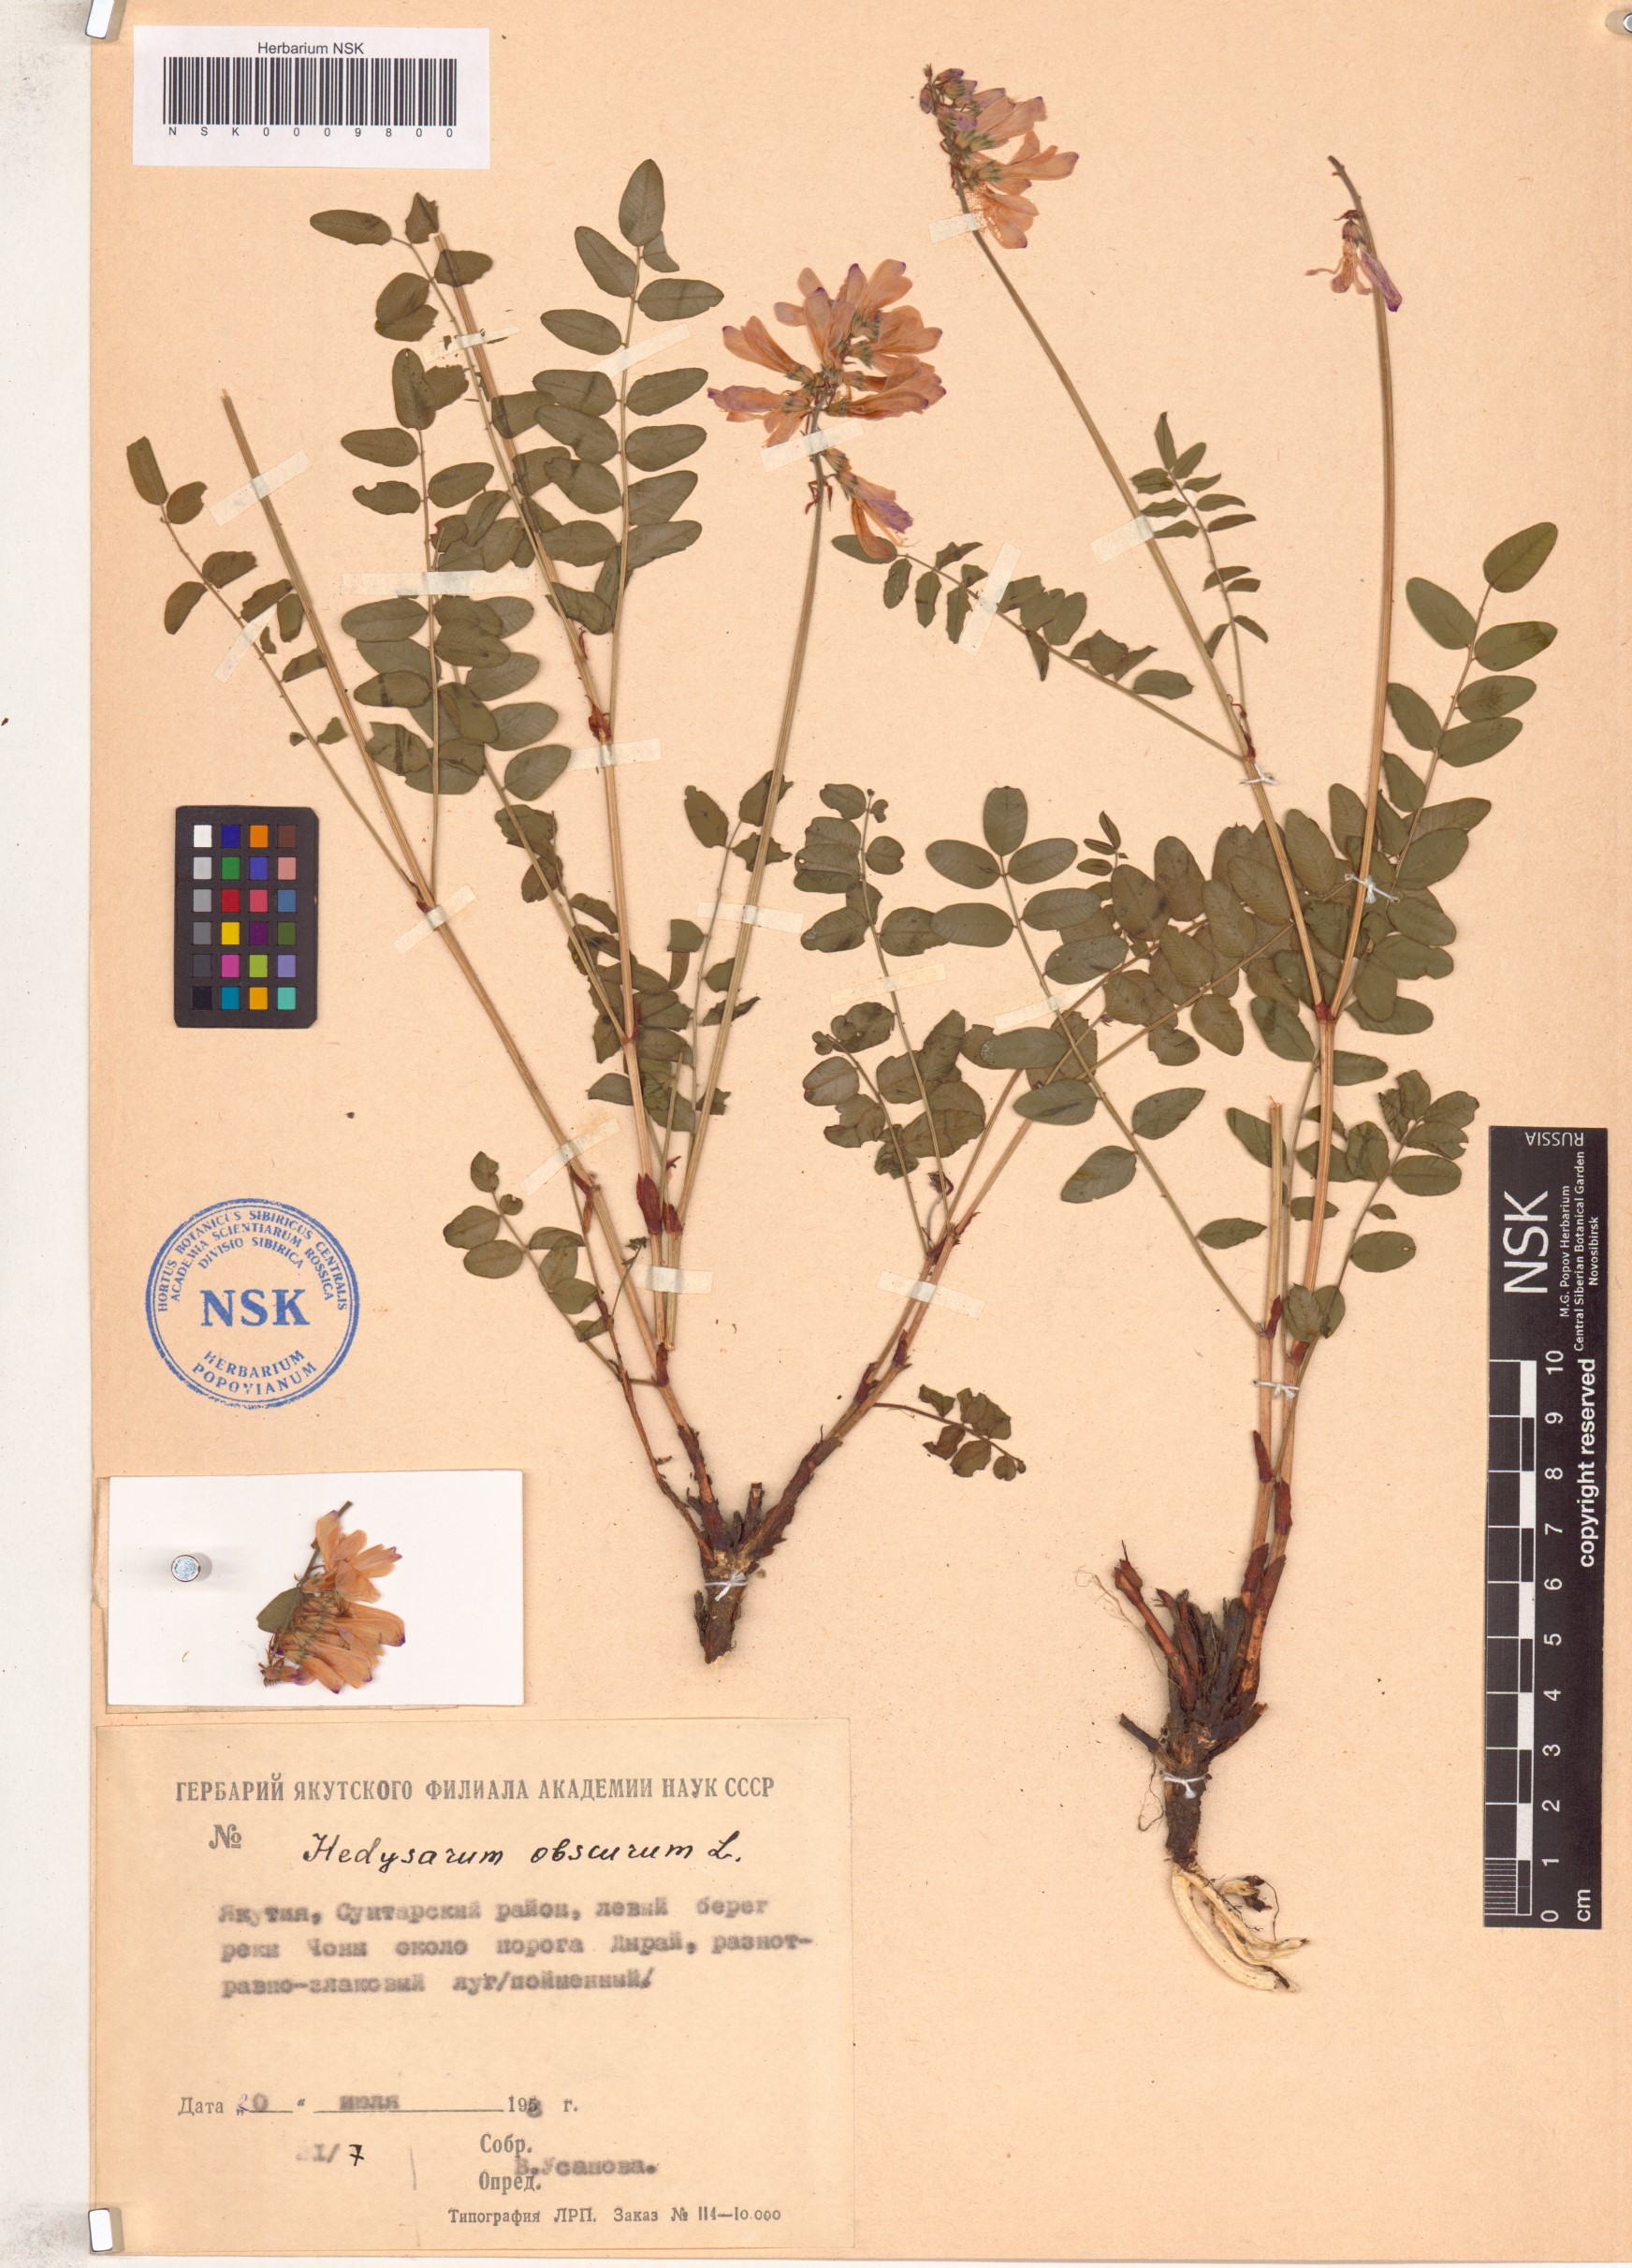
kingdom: Plantae
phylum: Tracheophyta
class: Magnoliopsida
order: Fabales
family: Fabaceae
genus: Hedysarum
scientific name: Hedysarum hedysaroides
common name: Alpine french-honeysuckle
